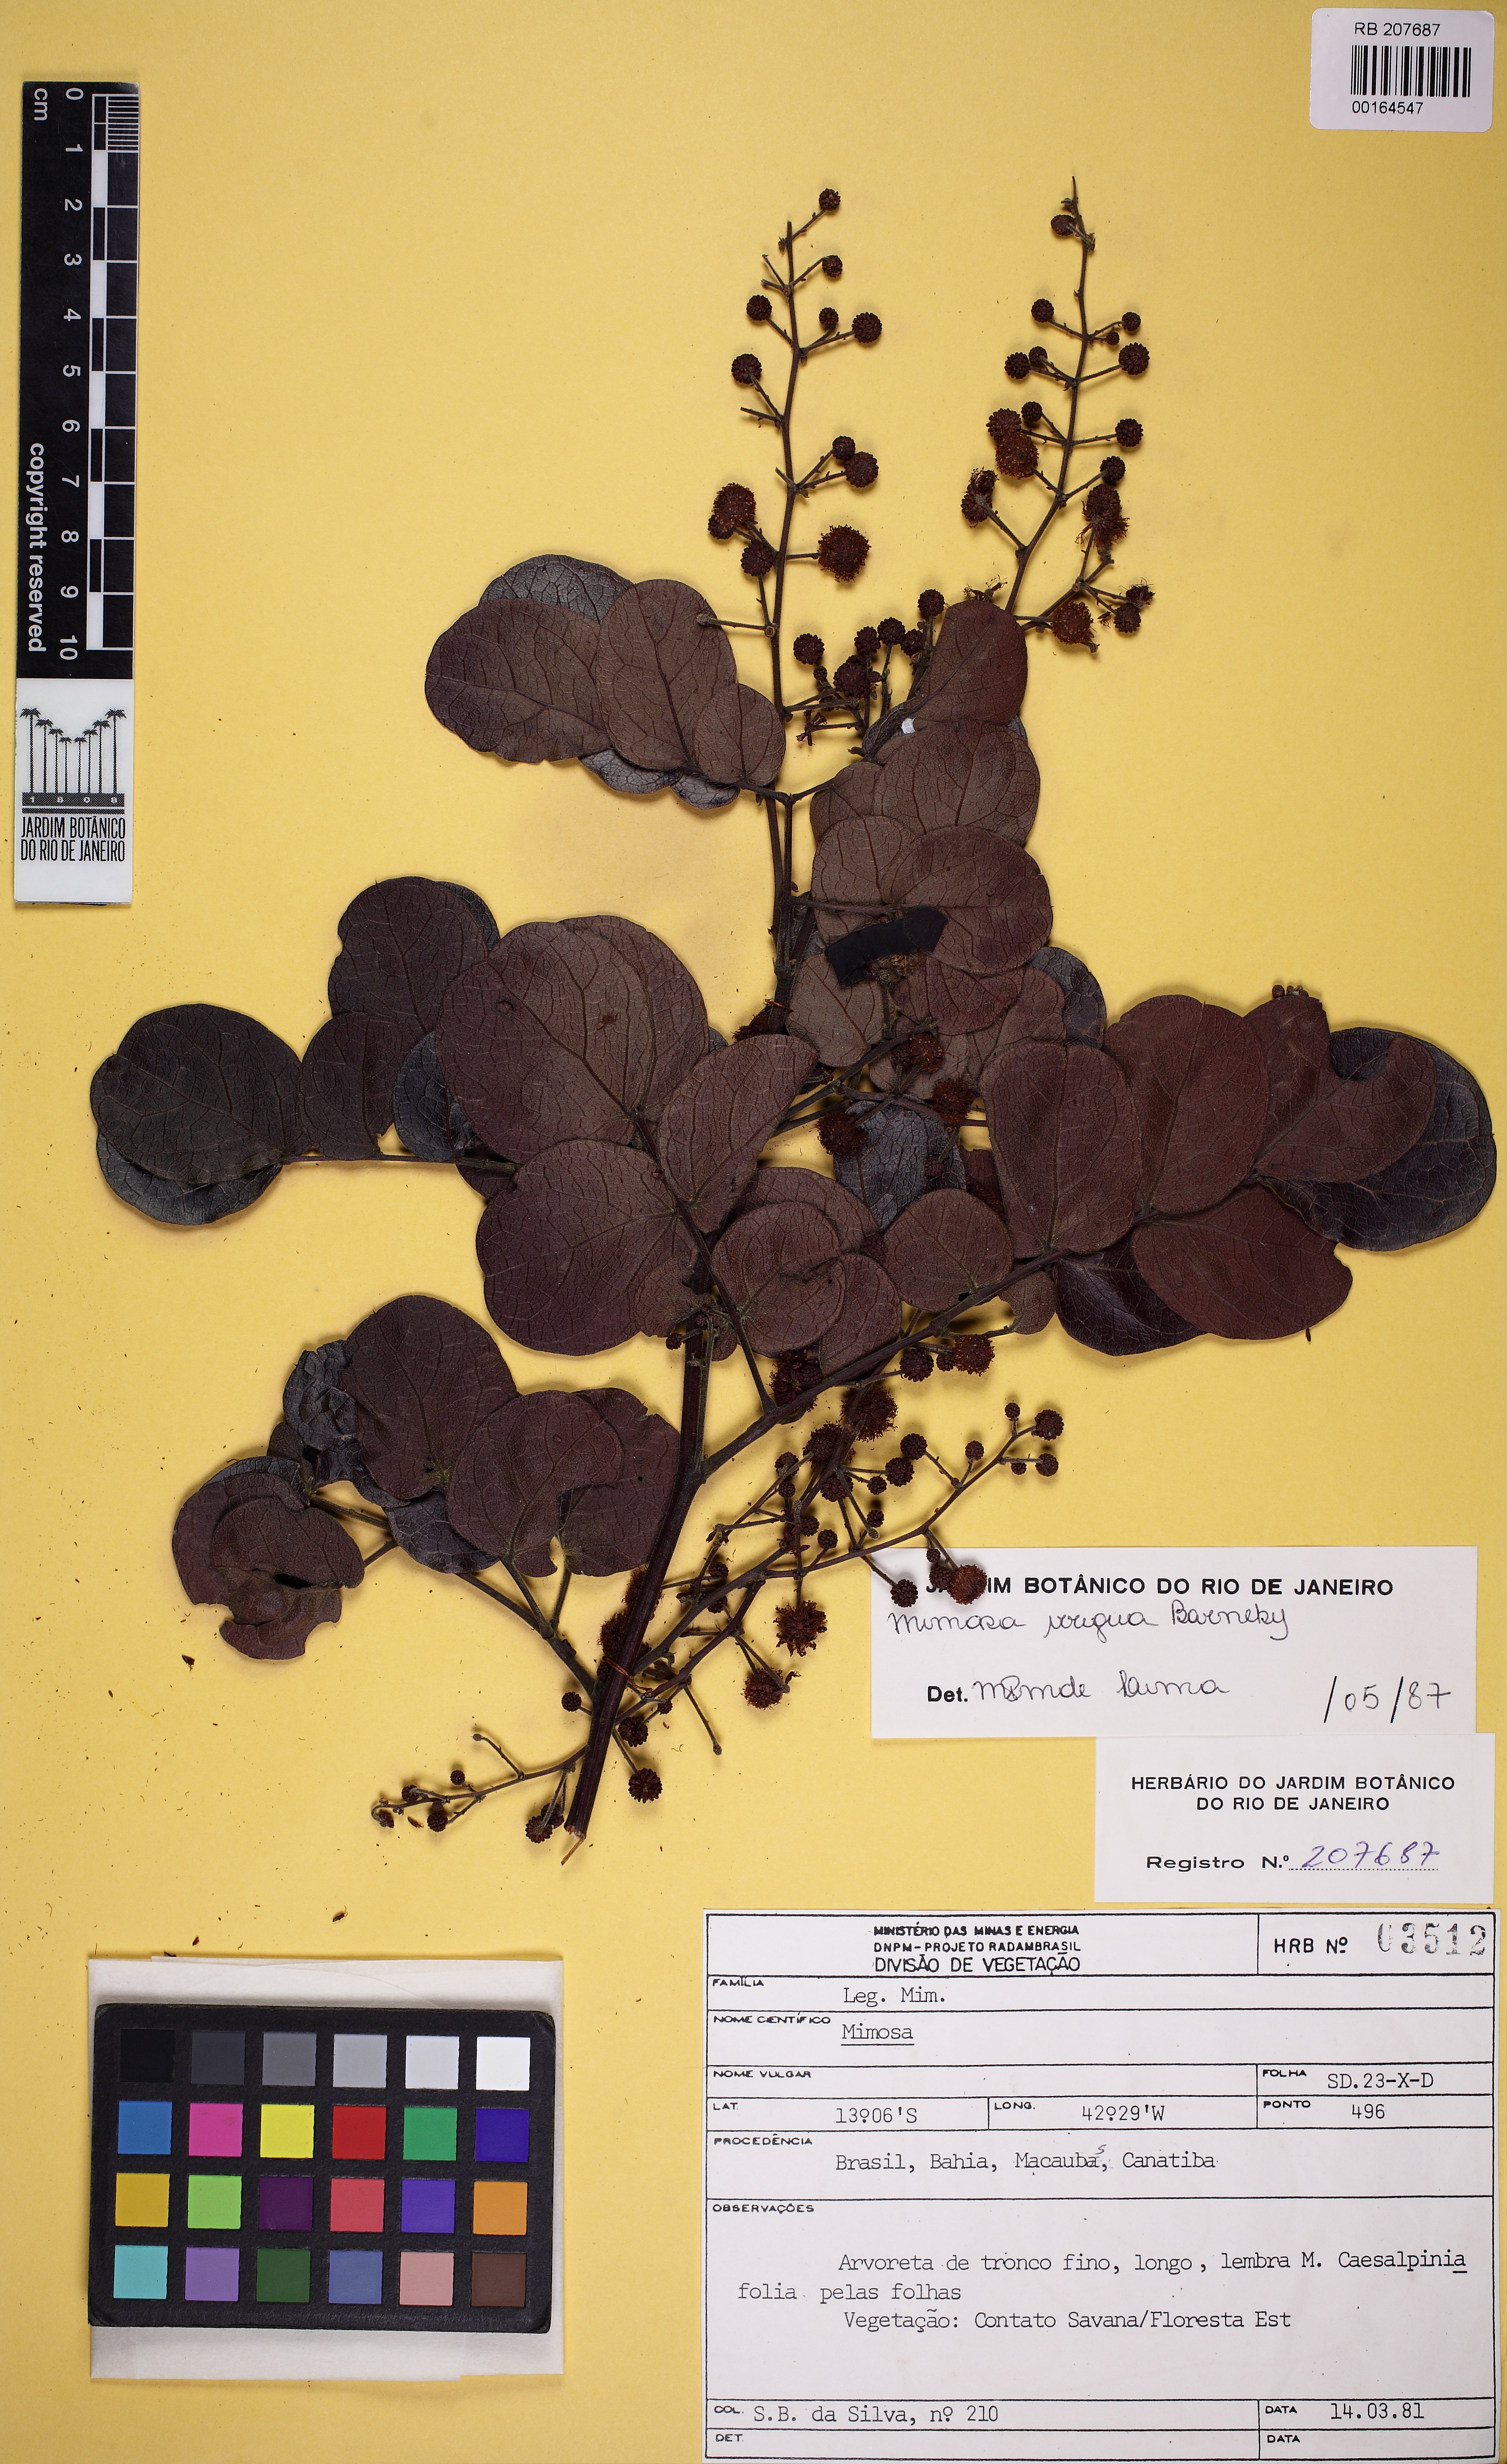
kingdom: Plantae
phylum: Tracheophyta
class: Magnoliopsida
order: Fabales
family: Fabaceae
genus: Mimosa
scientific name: Mimosa irrigua
